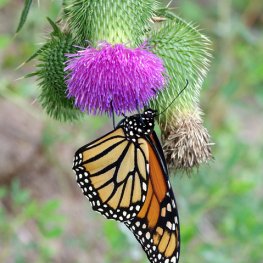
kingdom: Animalia
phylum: Arthropoda
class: Insecta
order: Lepidoptera
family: Nymphalidae
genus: Danaus
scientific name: Danaus plexippus
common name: Monarch
